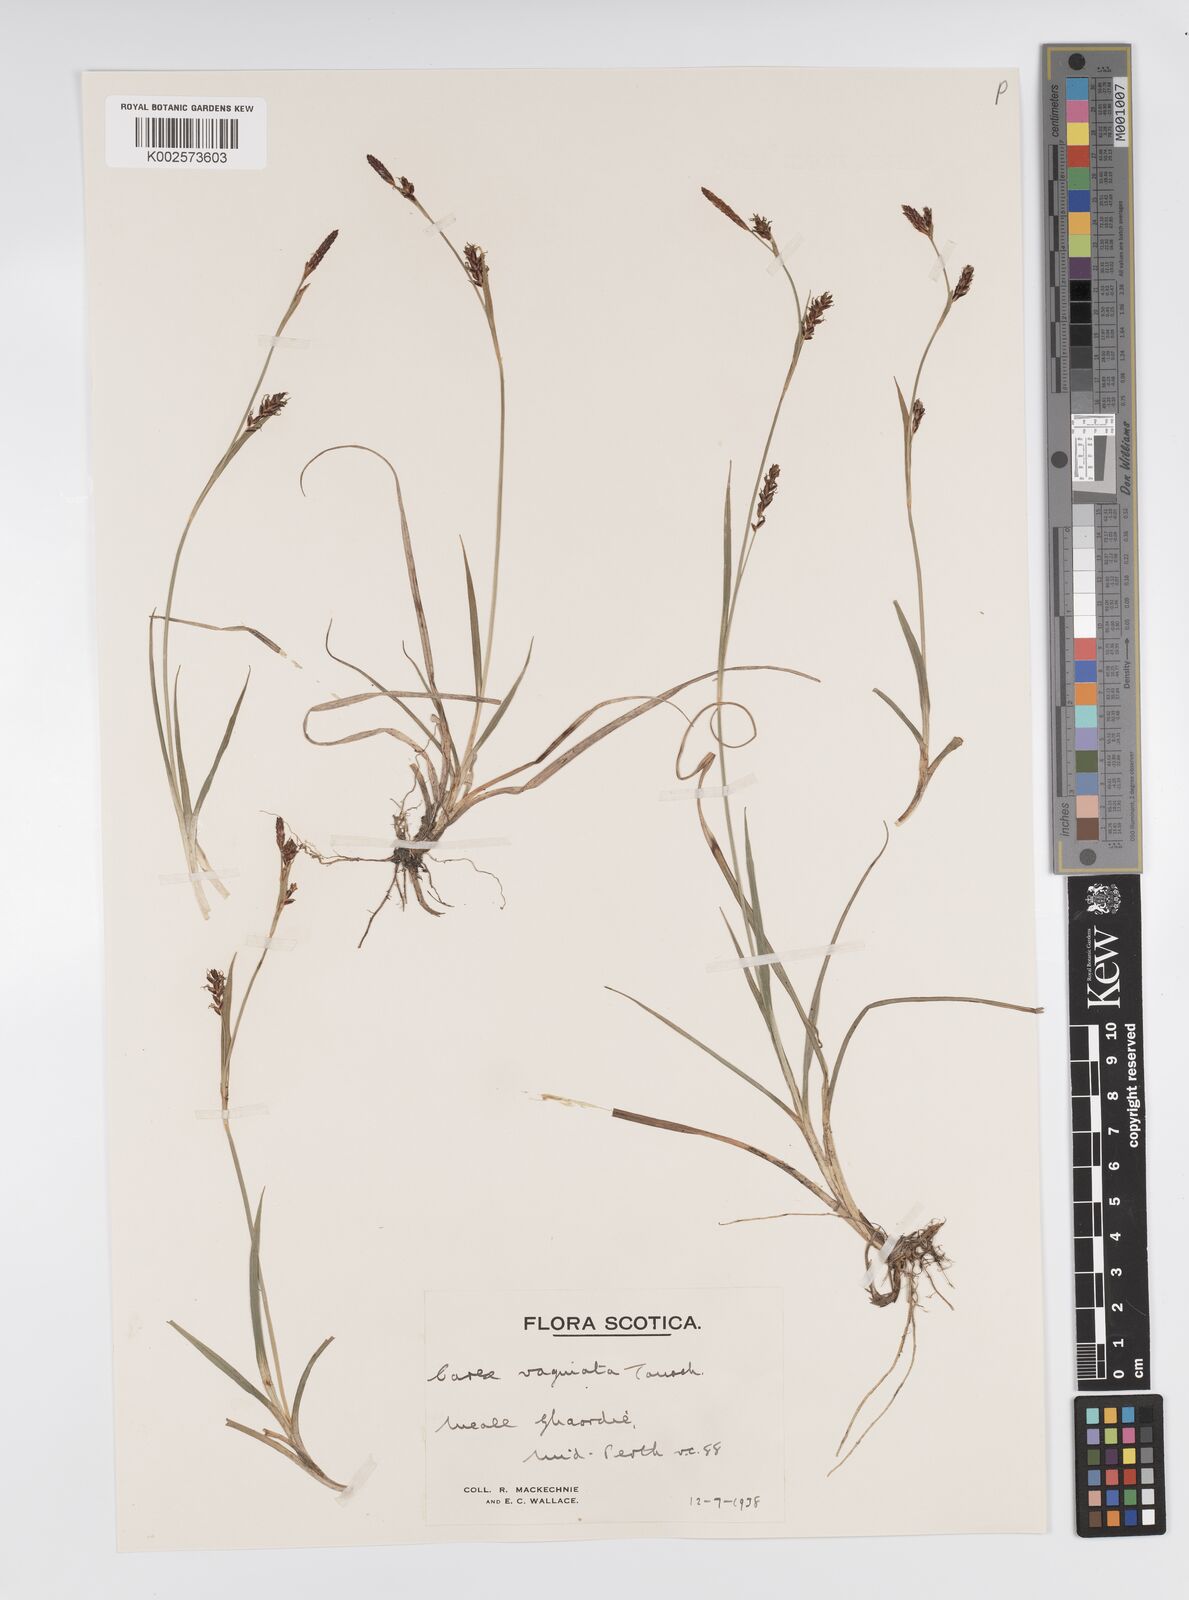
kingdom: Plantae
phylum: Tracheophyta
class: Liliopsida
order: Poales
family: Cyperaceae
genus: Carex
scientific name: Carex panicea
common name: Carnation sedge
